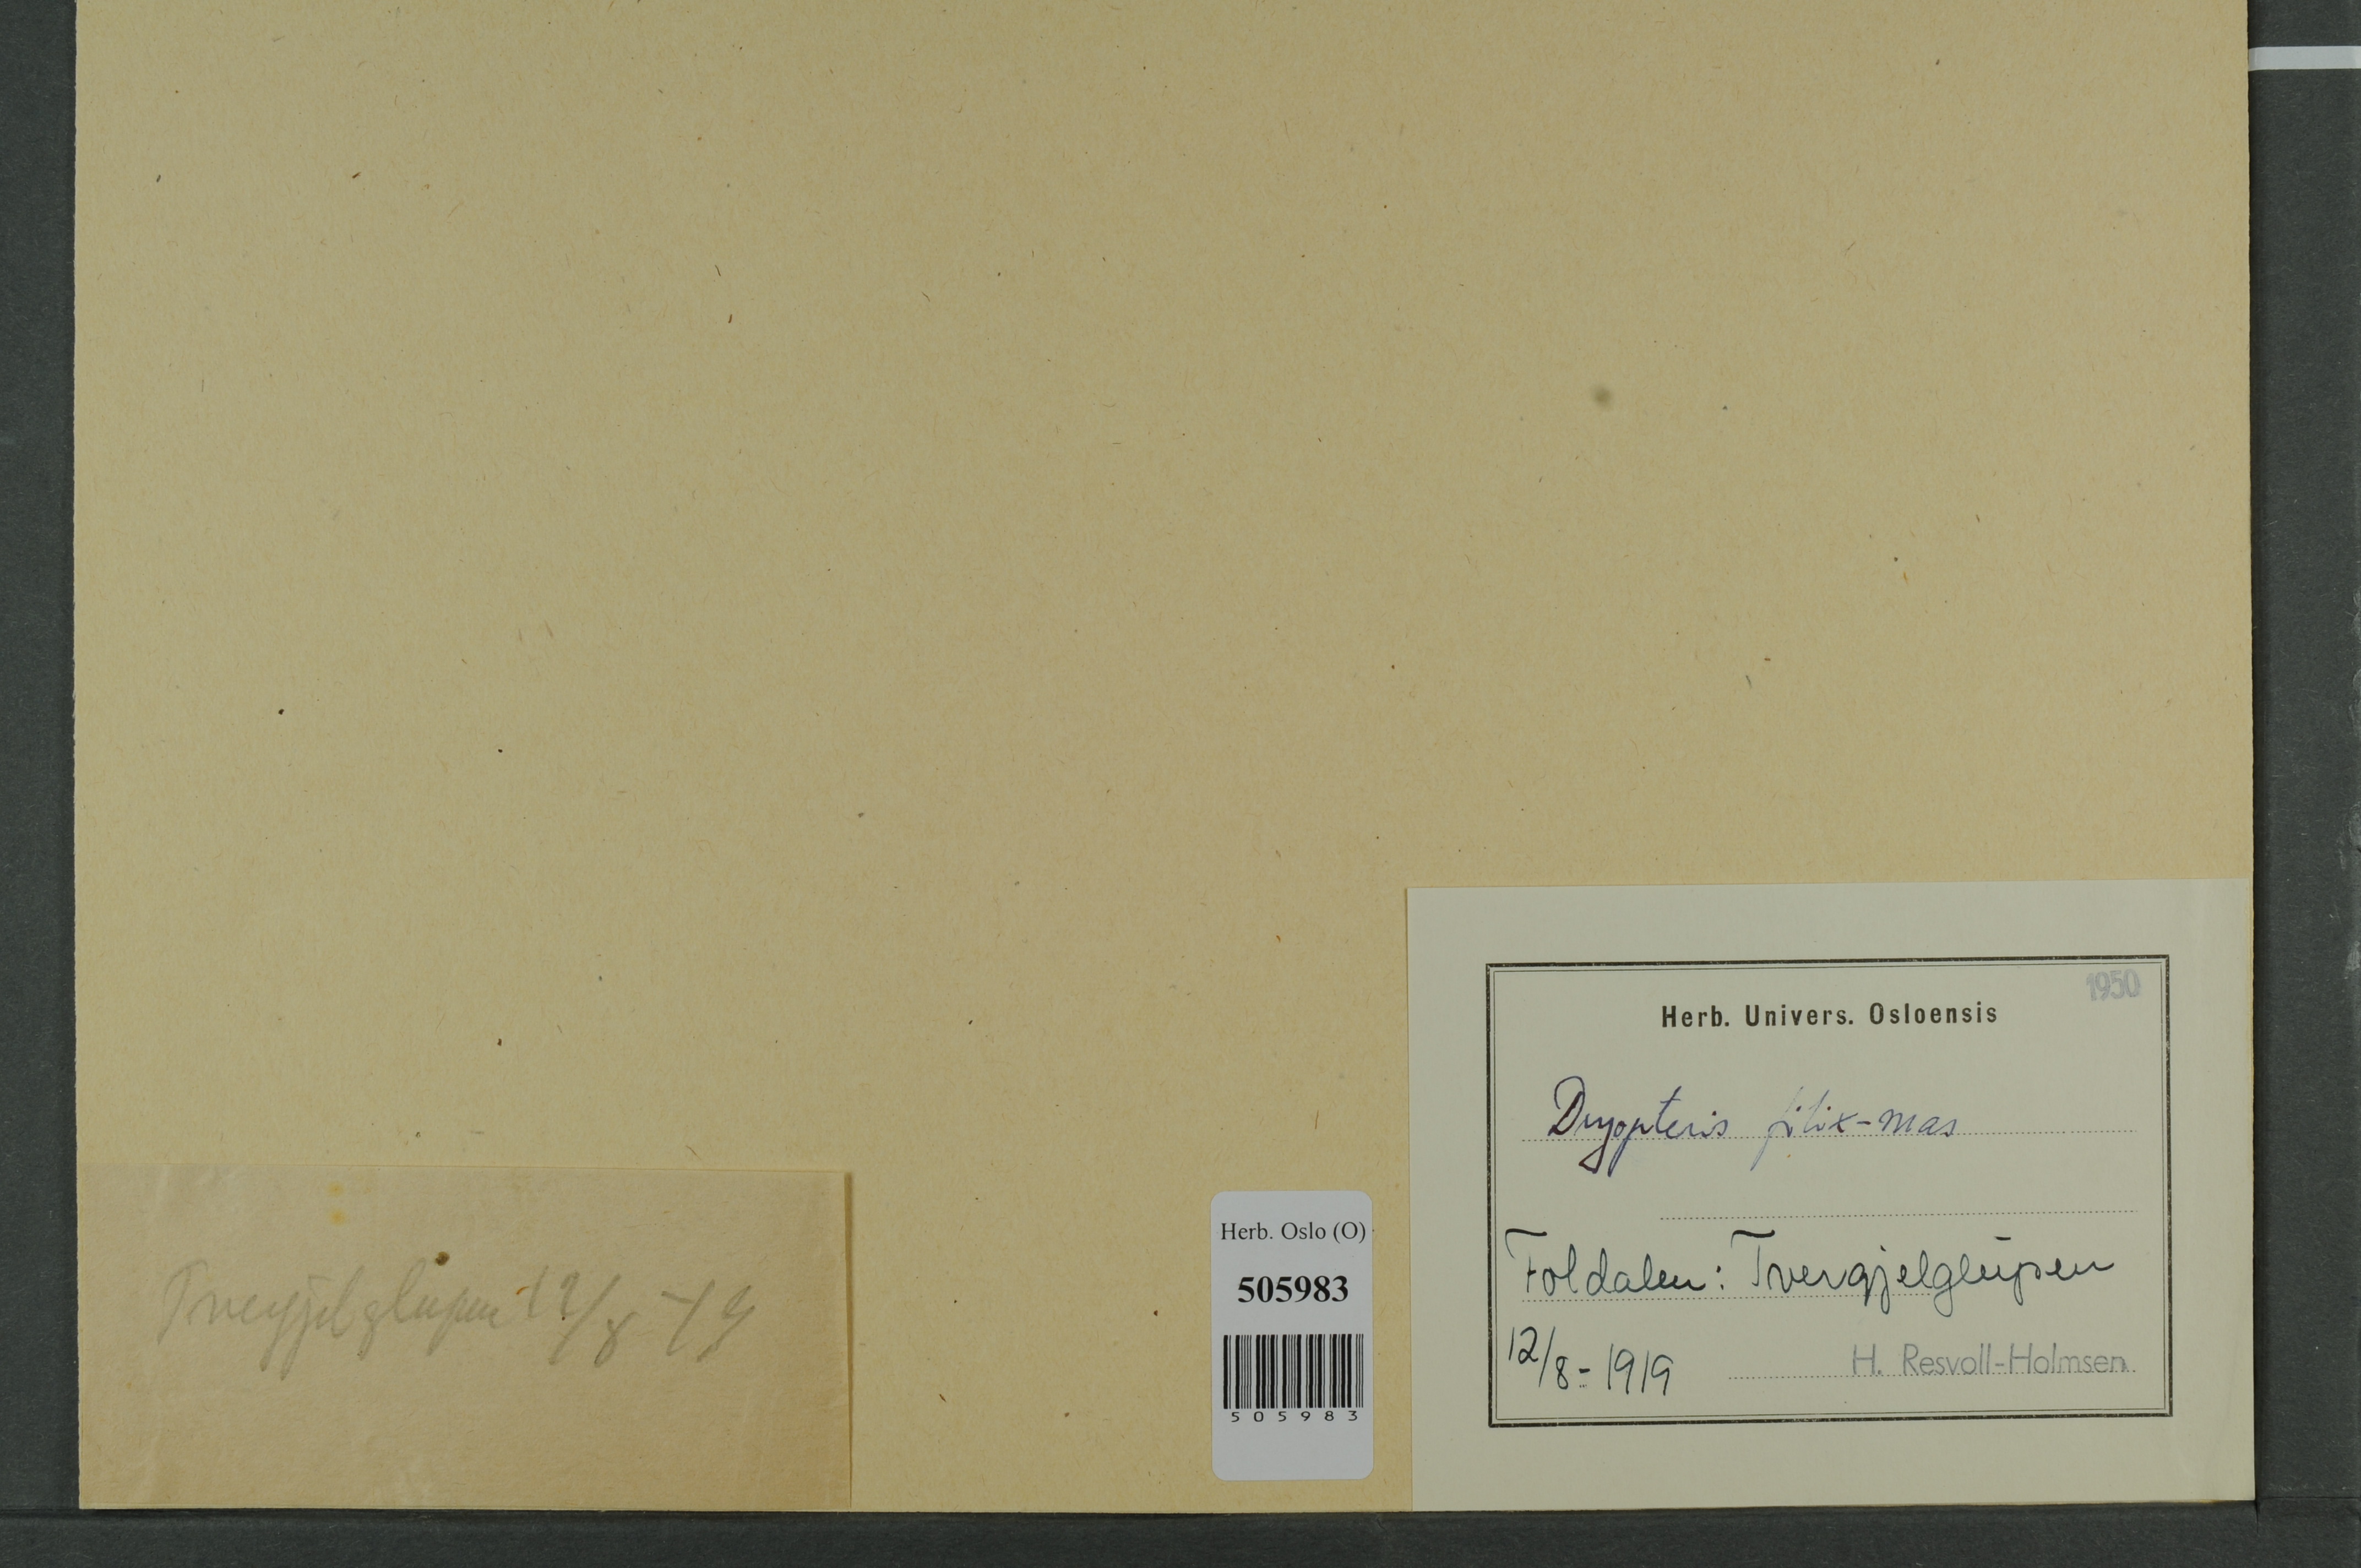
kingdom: Plantae
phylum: Tracheophyta
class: Polypodiopsida
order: Polypodiales
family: Dryopteridaceae
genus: Dryopteris
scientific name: Dryopteris filix-mas
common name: Male fern
